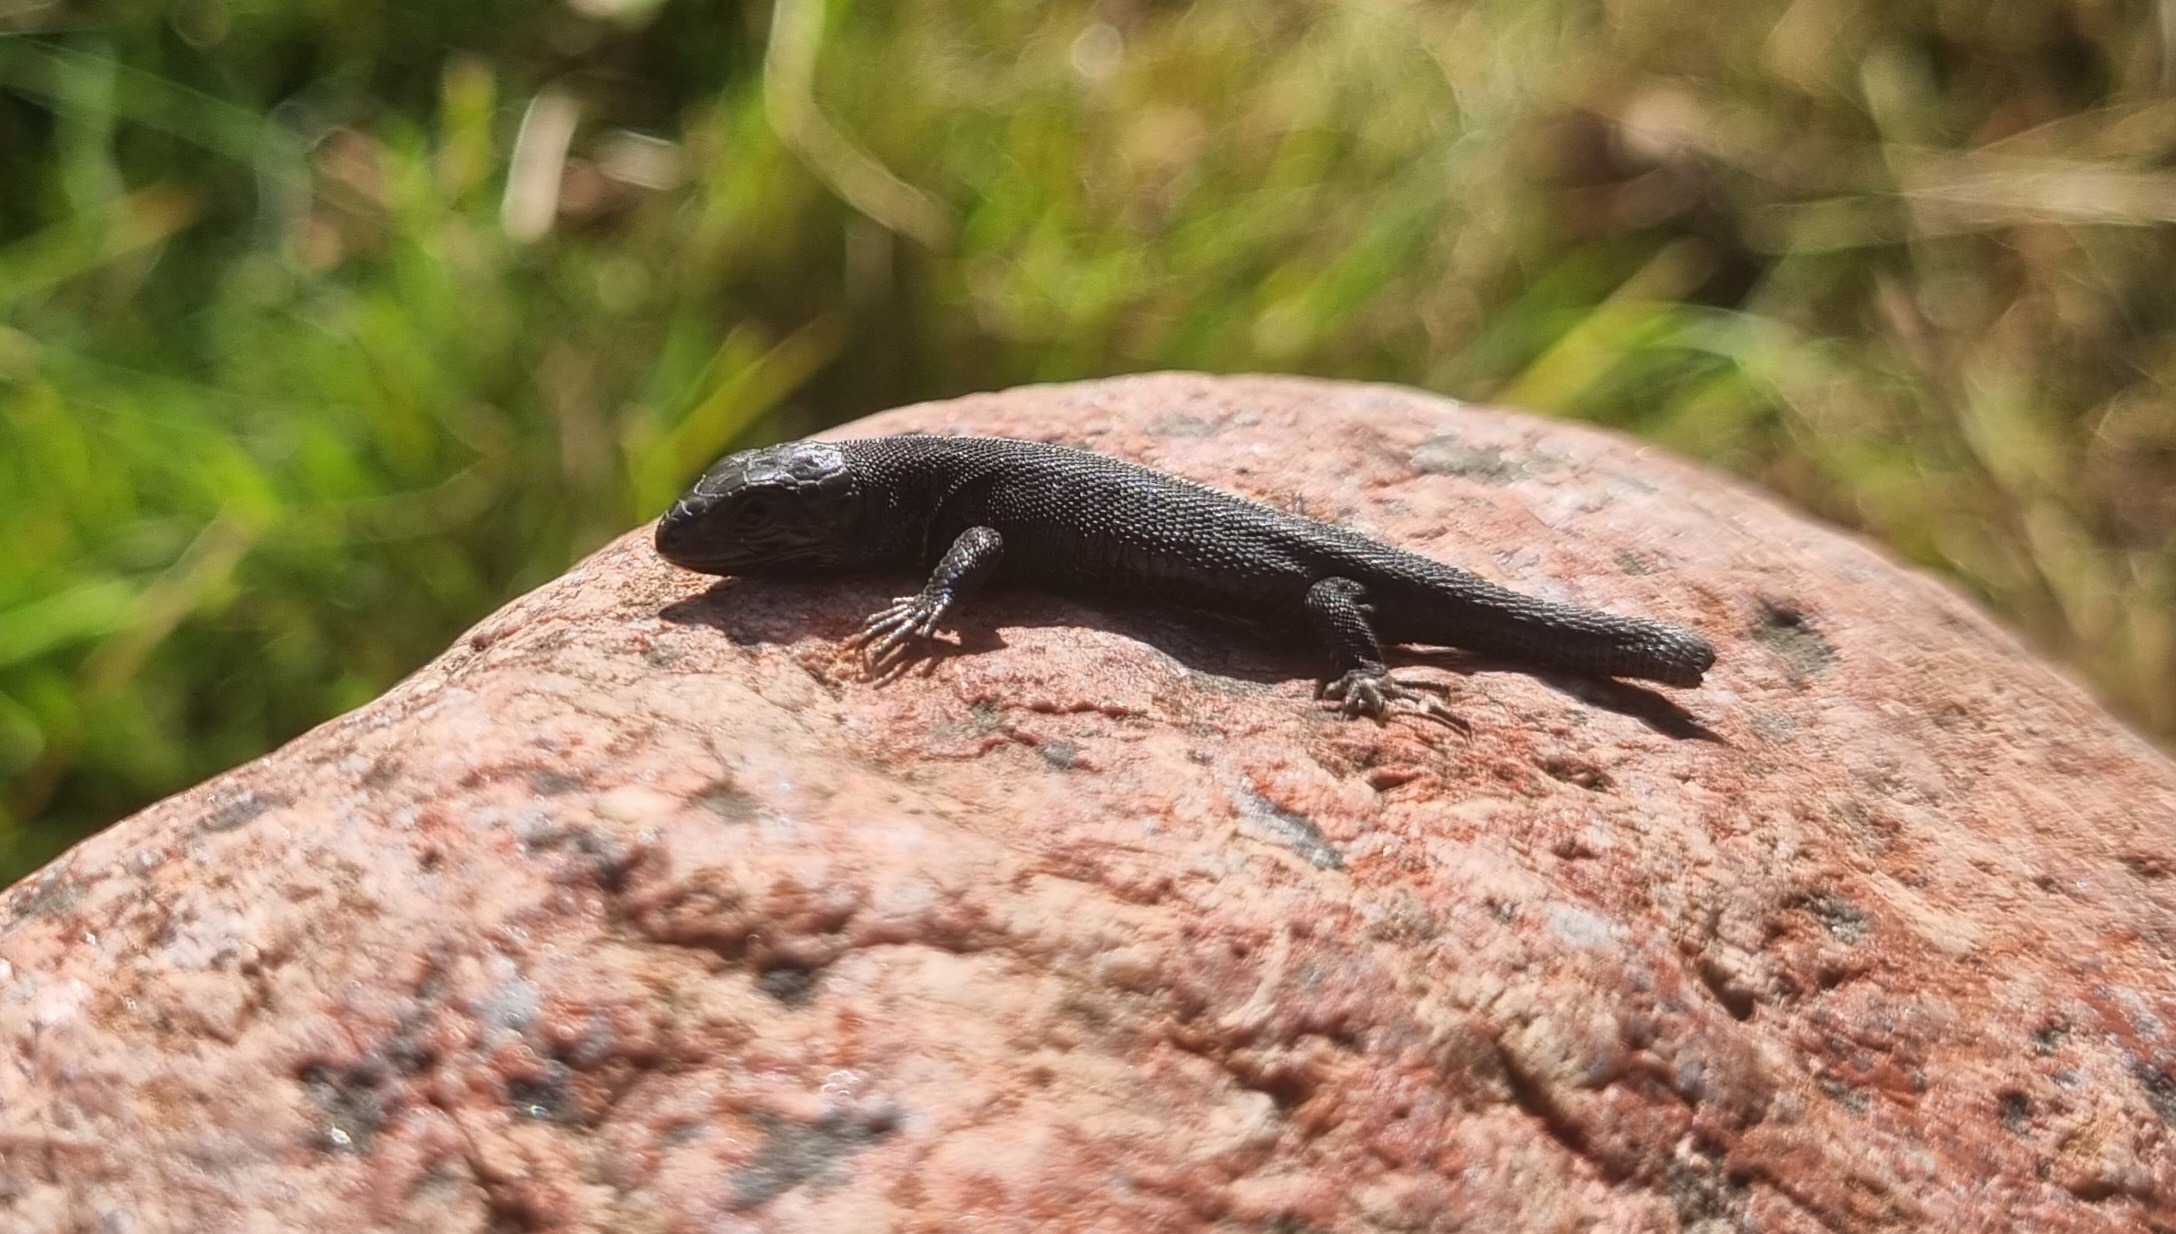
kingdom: Animalia
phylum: Chordata
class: Squamata
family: Lacertidae
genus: Lacerta
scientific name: Lacerta agilis
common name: Markfirben
